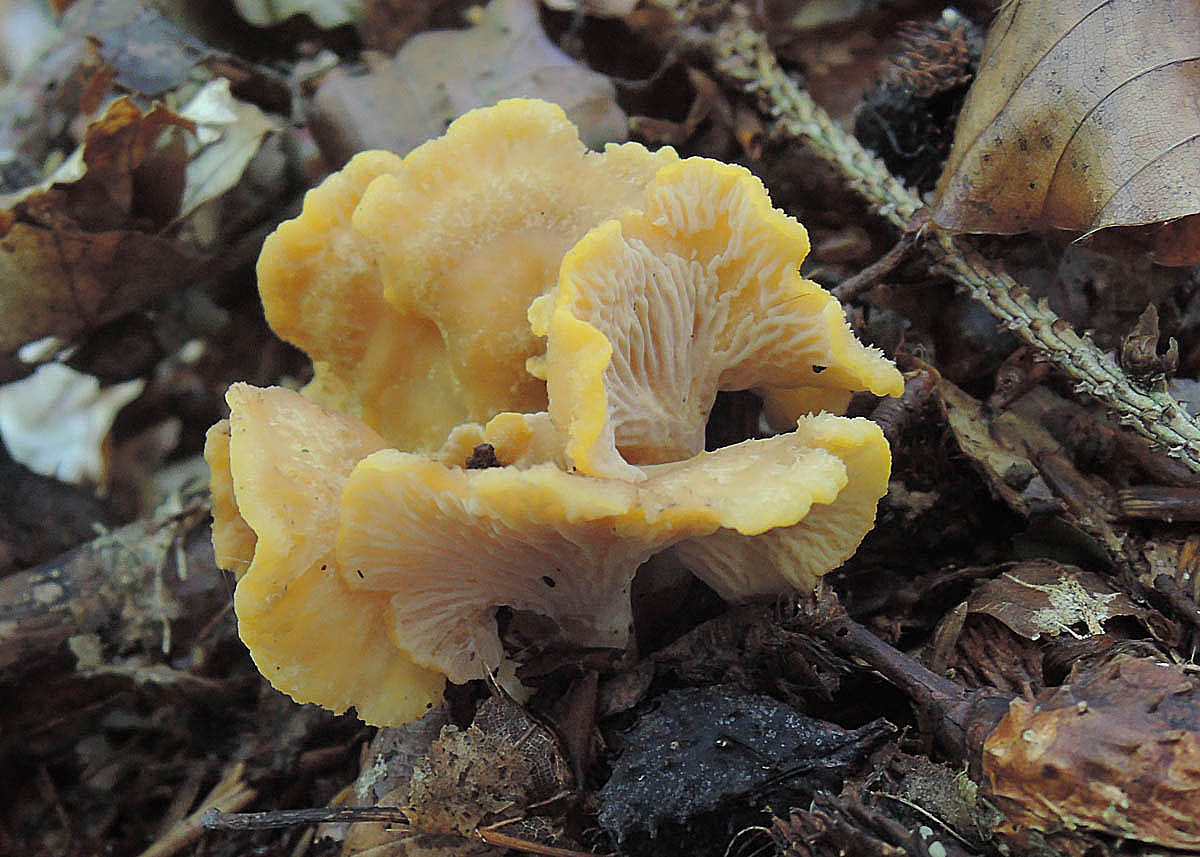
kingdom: Fungi
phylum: Basidiomycota
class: Agaricomycetes
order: Cantharellales
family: Hydnaceae
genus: Cantharellus
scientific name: Cantharellus melanoxeros
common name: sværtende kantarel
